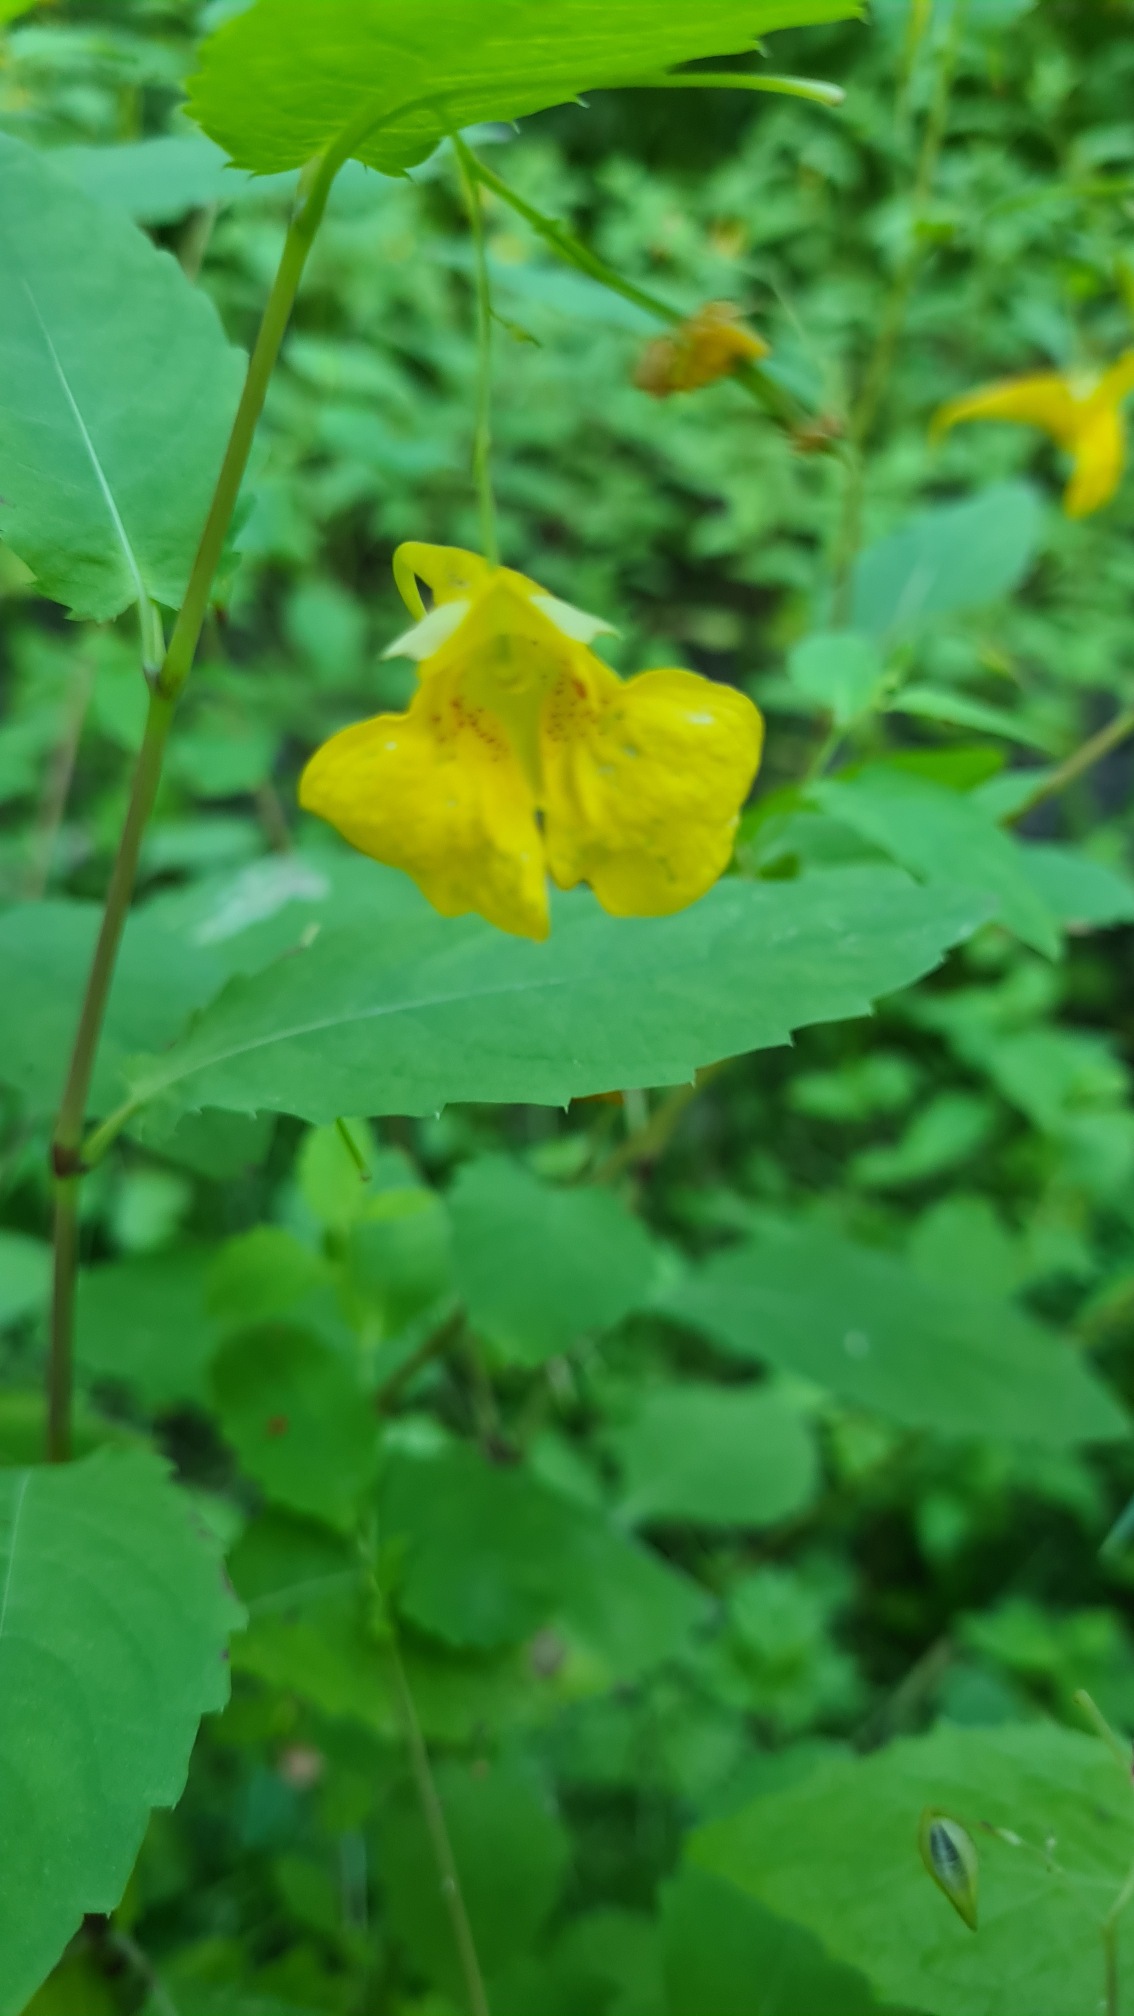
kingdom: Plantae
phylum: Tracheophyta
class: Magnoliopsida
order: Ericales
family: Balsaminaceae
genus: Impatiens
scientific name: Impatiens noli-tangere
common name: Spring-balsamin
